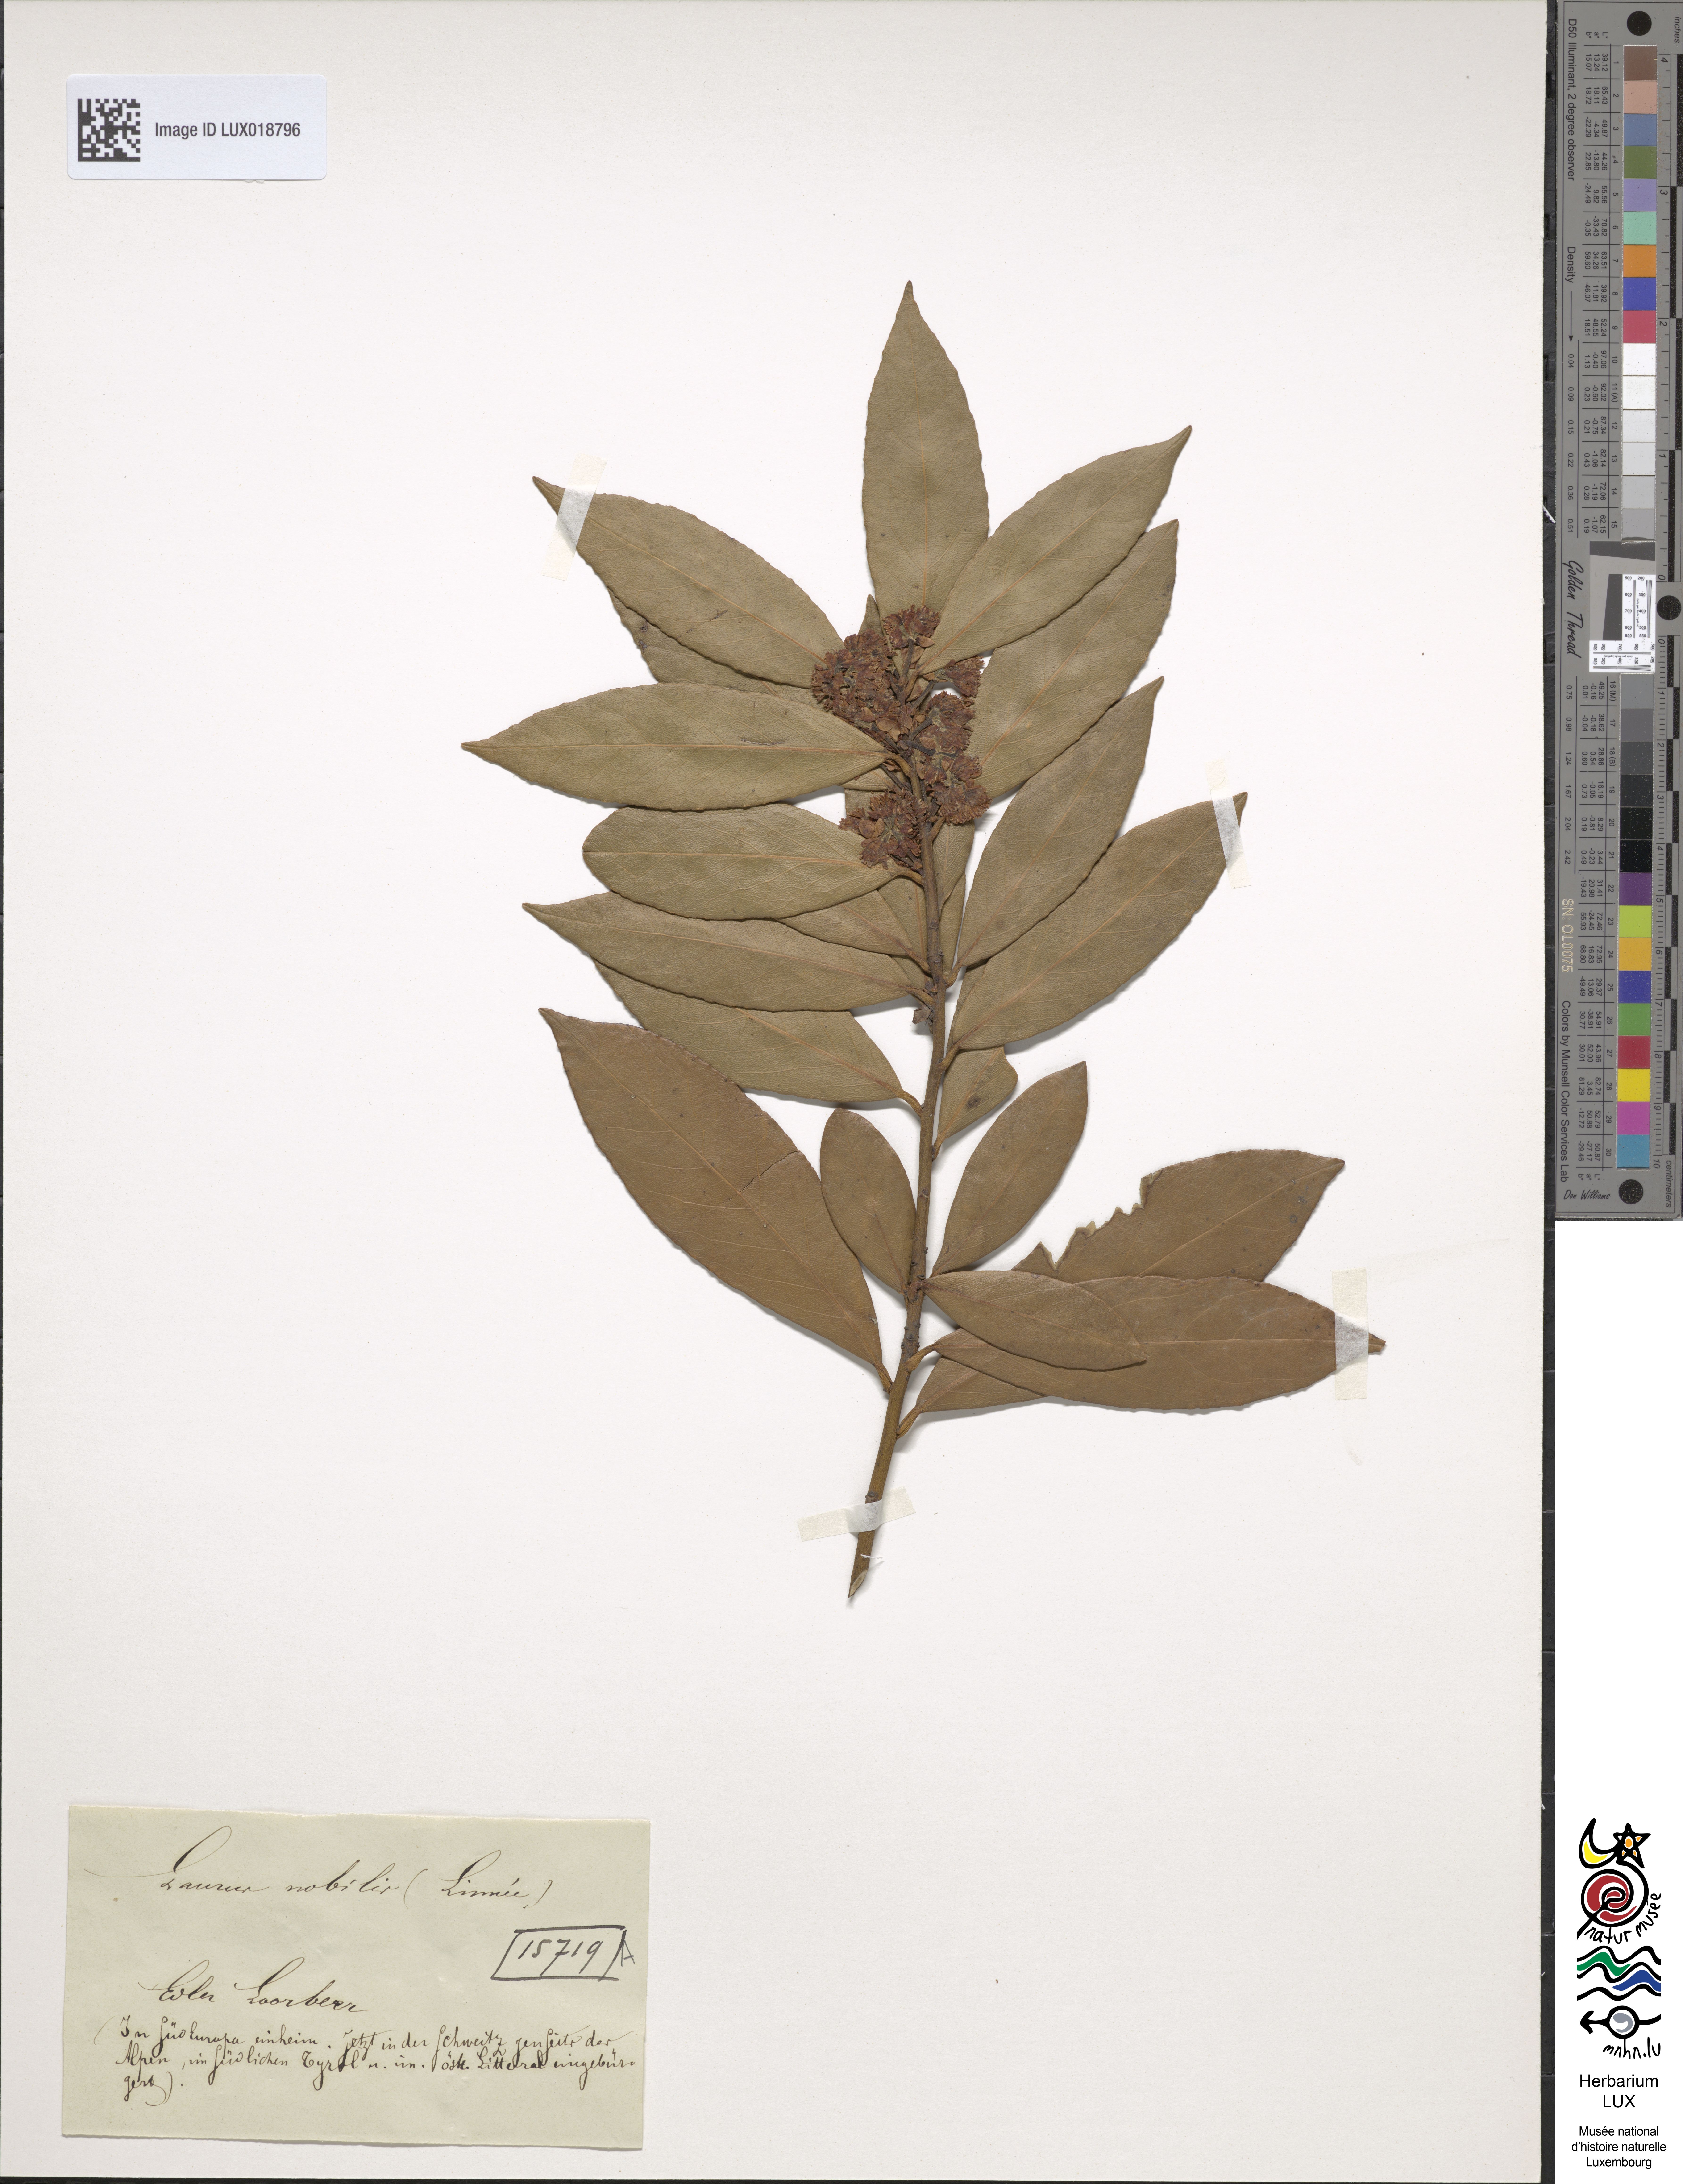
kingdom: Plantae
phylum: Tracheophyta
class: Magnoliopsida
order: Laurales
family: Lauraceae
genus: Laurus
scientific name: Laurus nobilis
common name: Bay
